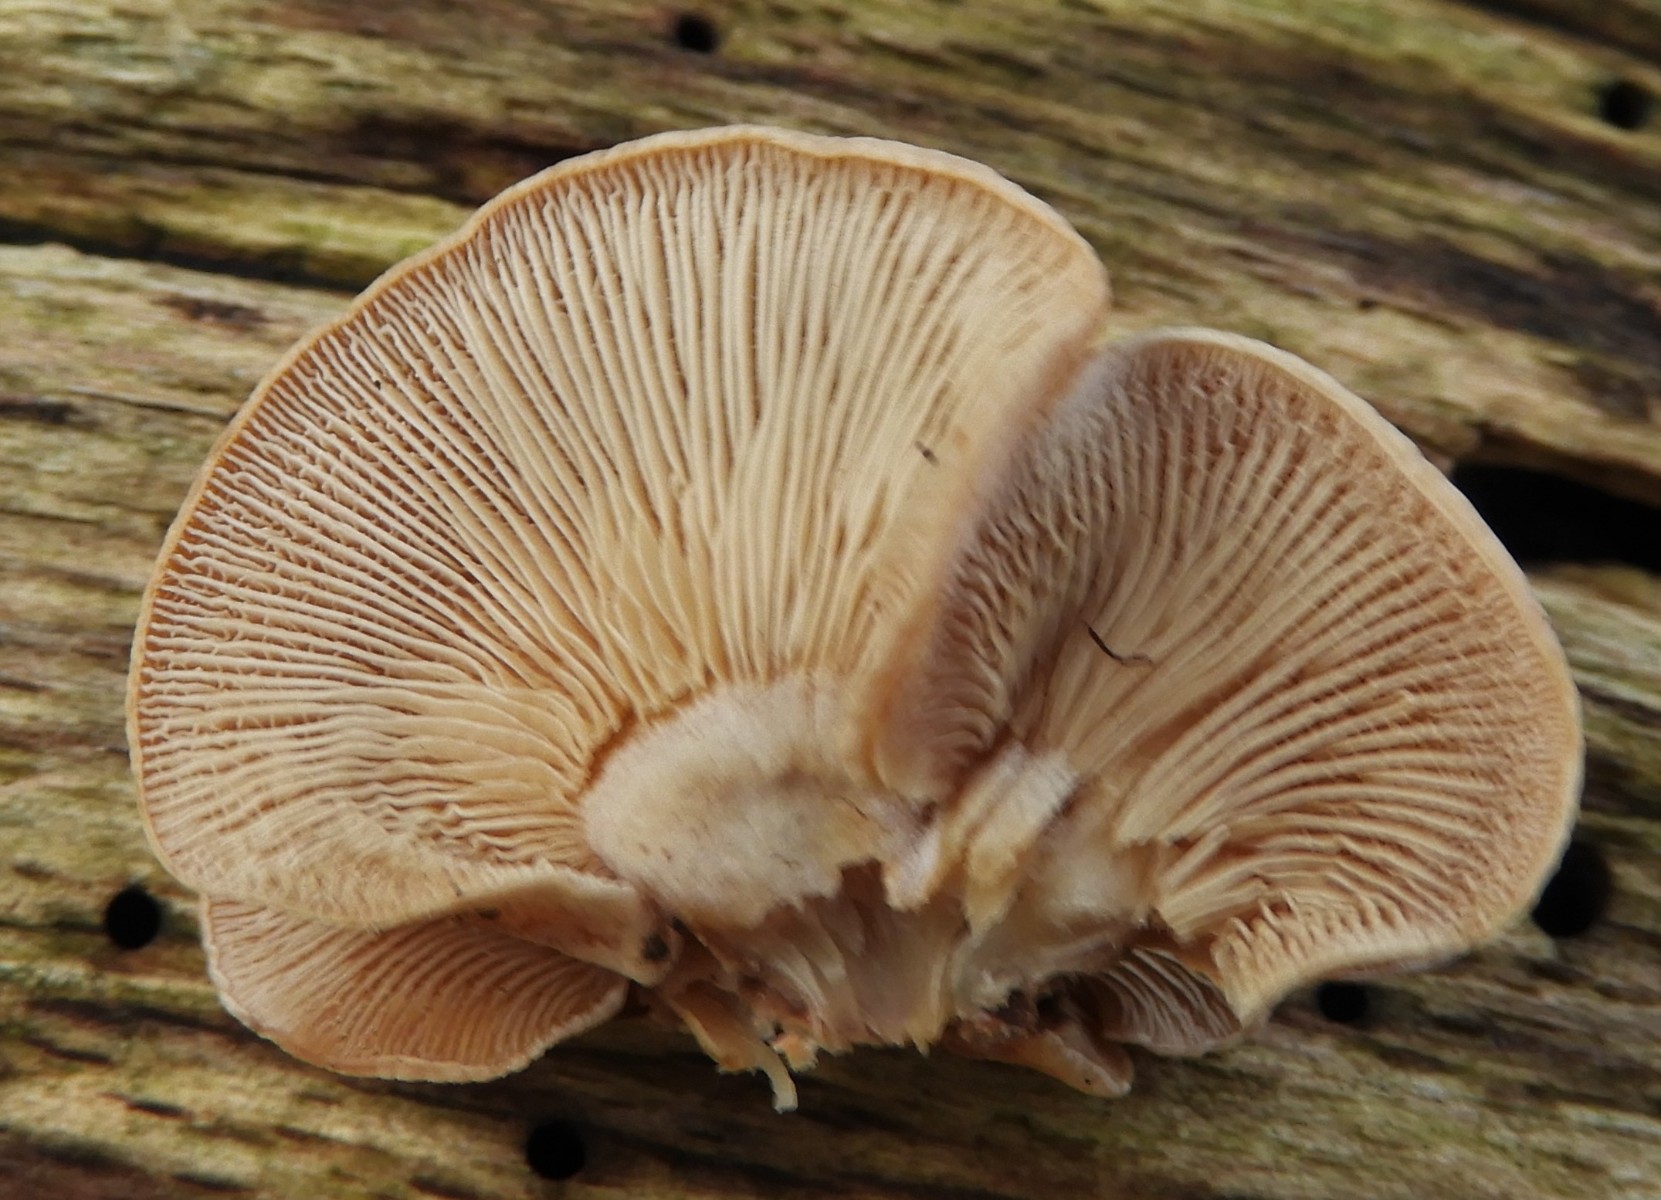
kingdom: Fungi
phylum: Basidiomycota
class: Agaricomycetes
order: Agaricales
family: Mycenaceae
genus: Panellus
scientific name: Panellus stipticus
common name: kliddet epaulethat
